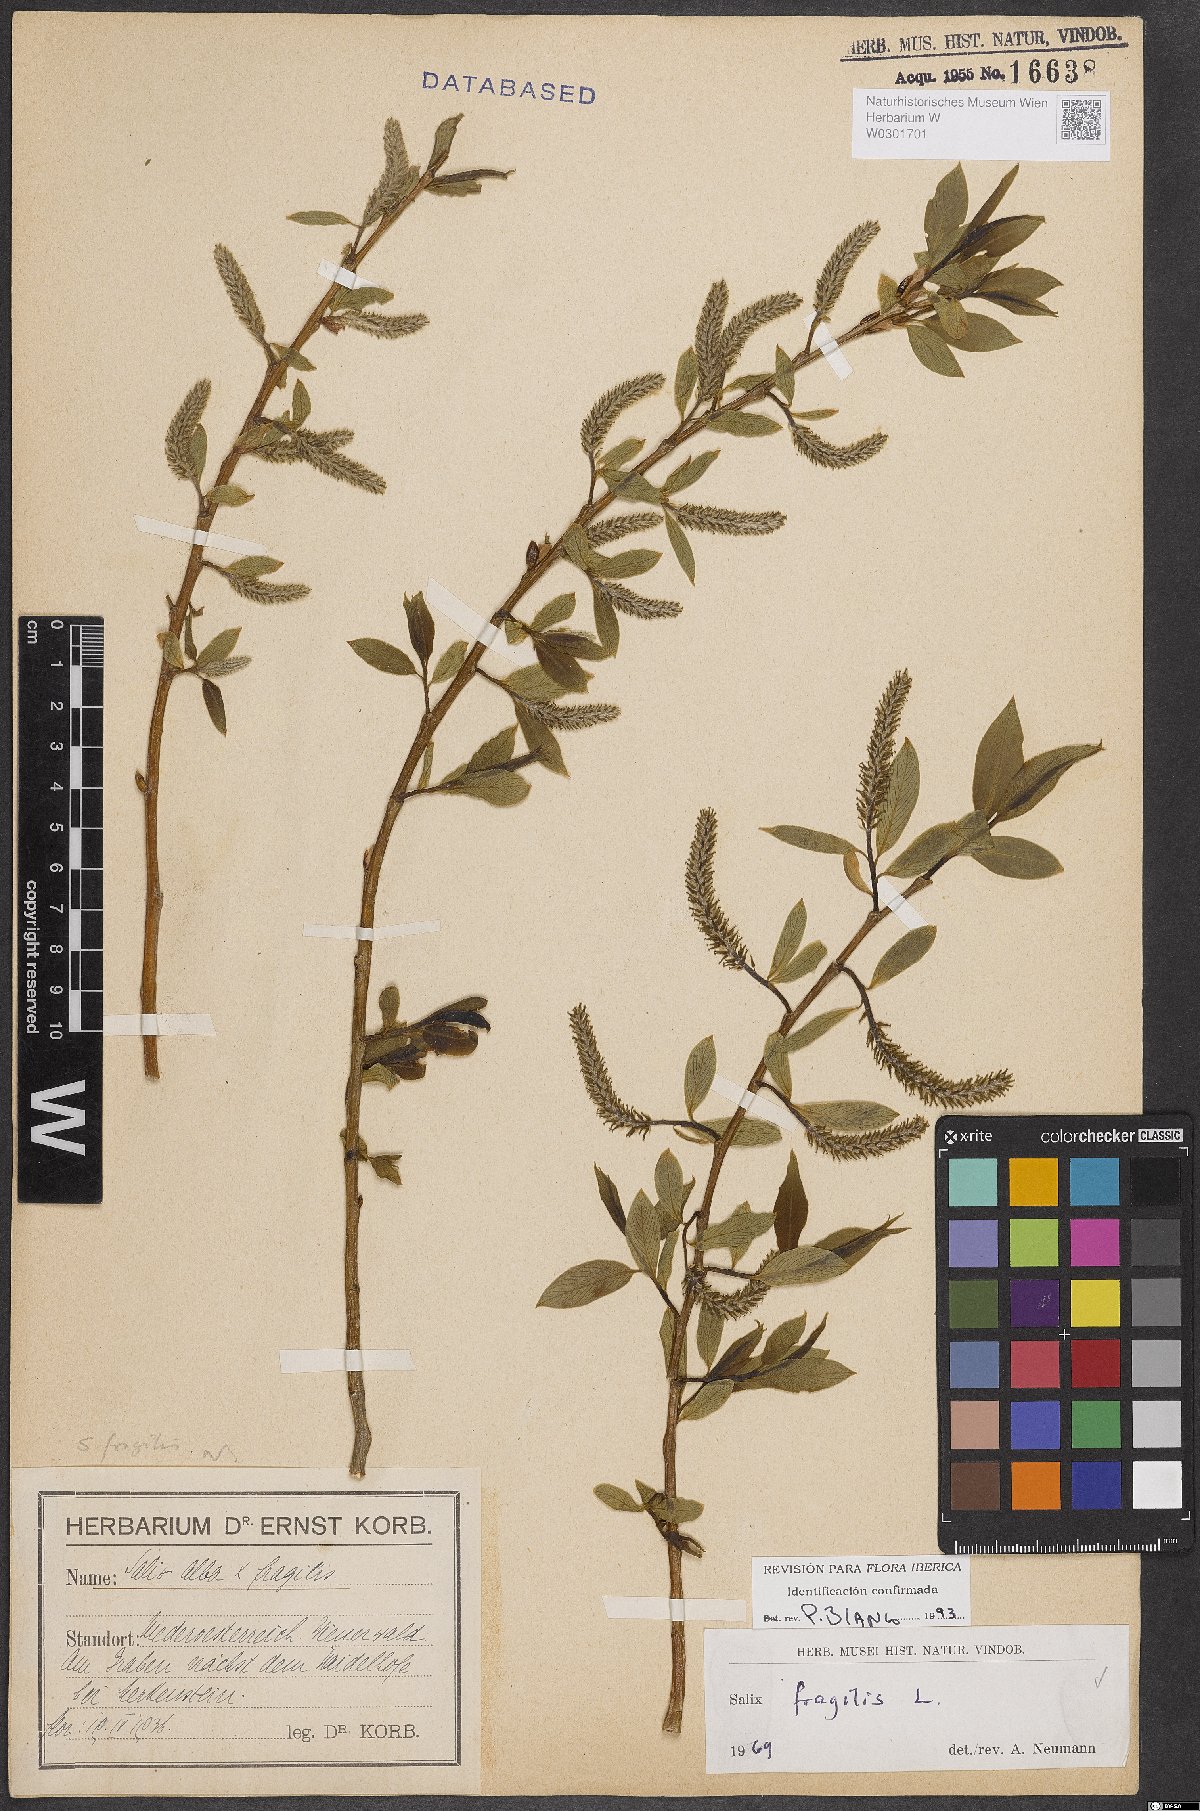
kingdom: Plantae
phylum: Tracheophyta
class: Magnoliopsida
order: Malpighiales
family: Salicaceae
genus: Salix
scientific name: Salix fragilis
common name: Crack willow
